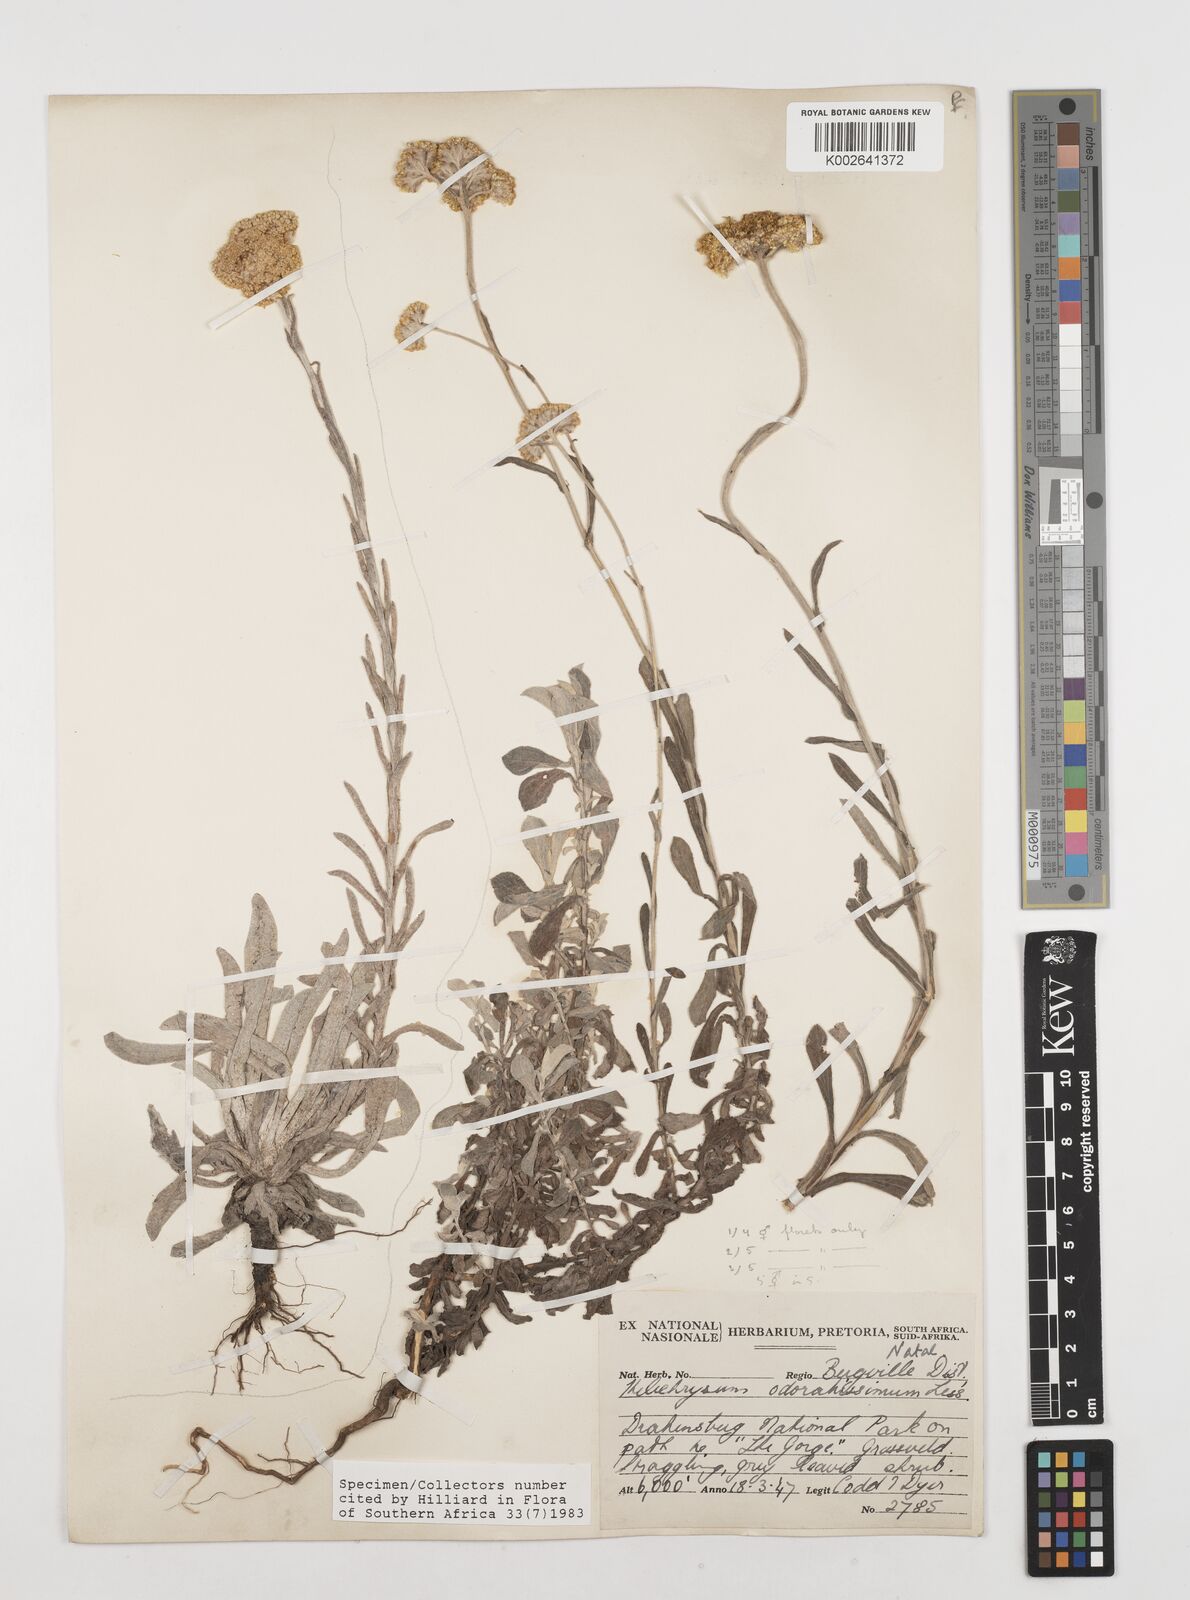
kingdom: Plantae
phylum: Tracheophyta
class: Magnoliopsida
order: Asterales
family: Asteraceae
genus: Helichrysum
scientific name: Helichrysum gymnocomum
